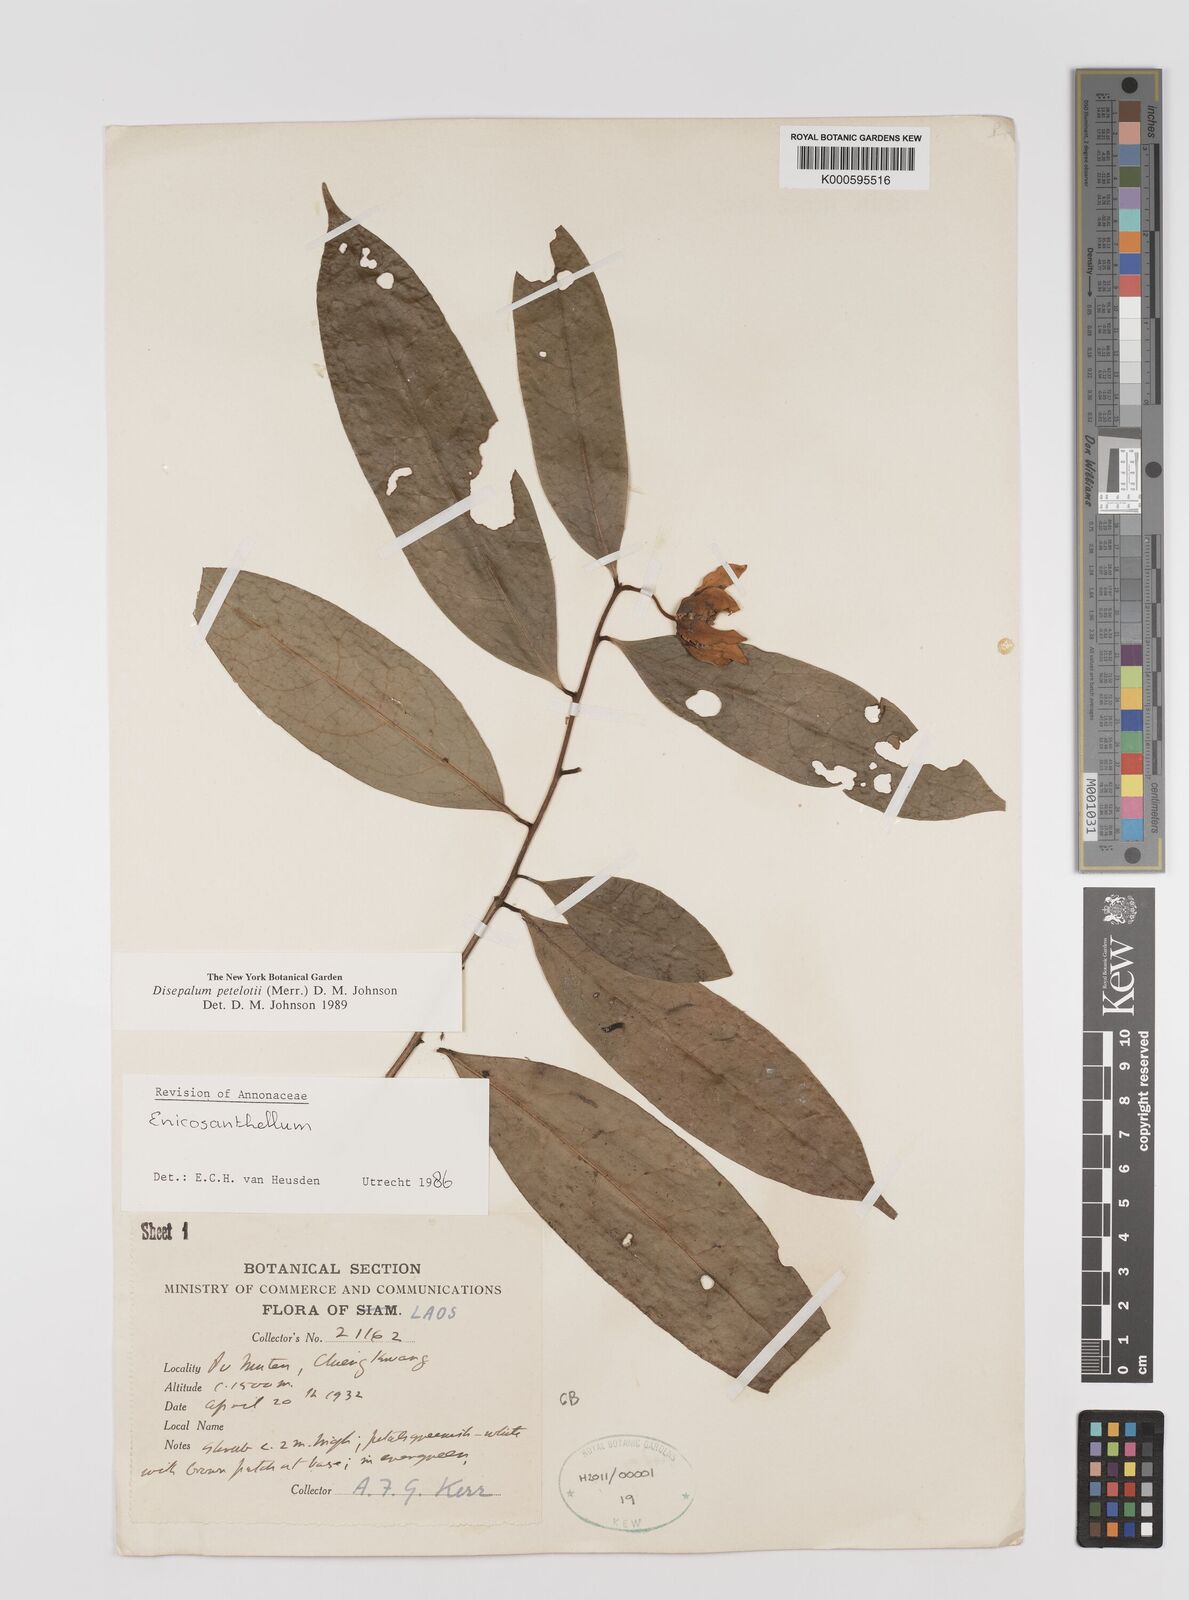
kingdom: Plantae
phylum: Tracheophyta
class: Magnoliopsida
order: Magnoliales
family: Annonaceae
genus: Disepalum
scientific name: Disepalum petelotii
